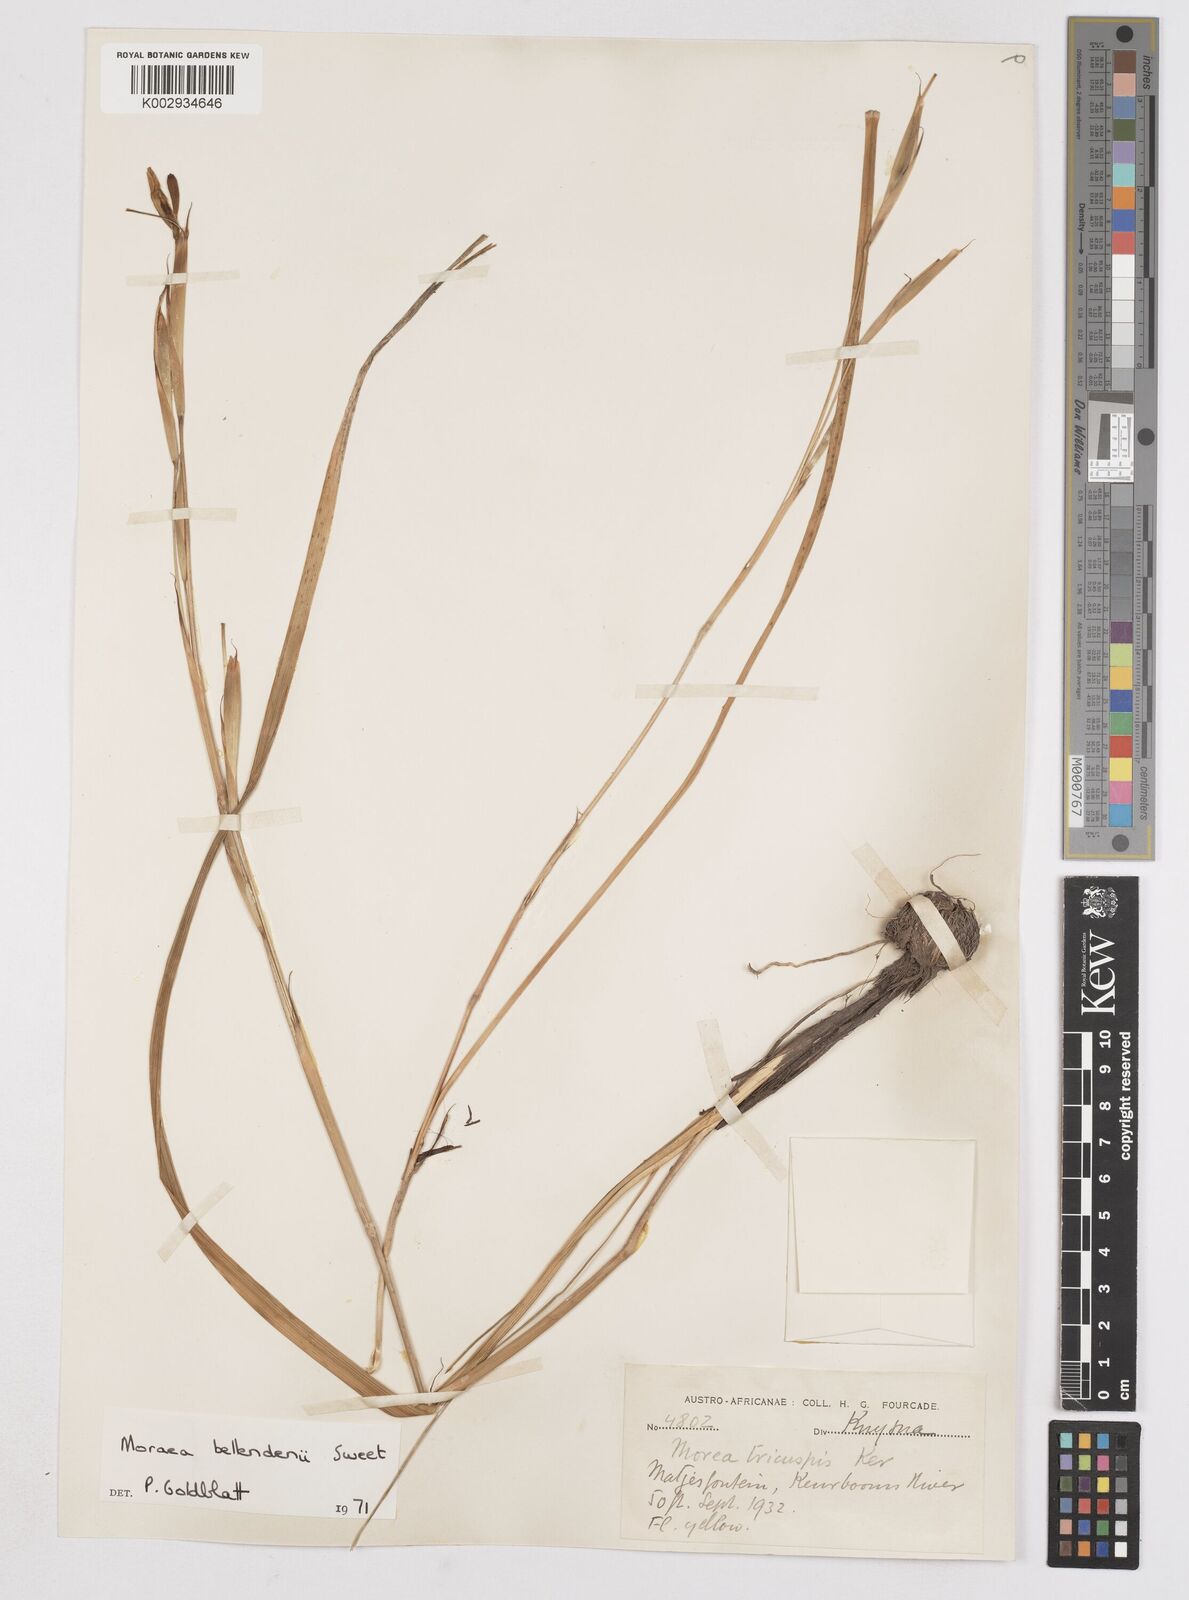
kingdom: Plantae
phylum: Tracheophyta
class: Liliopsida
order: Asparagales
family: Iridaceae
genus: Moraea
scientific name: Moraea bellendenii
